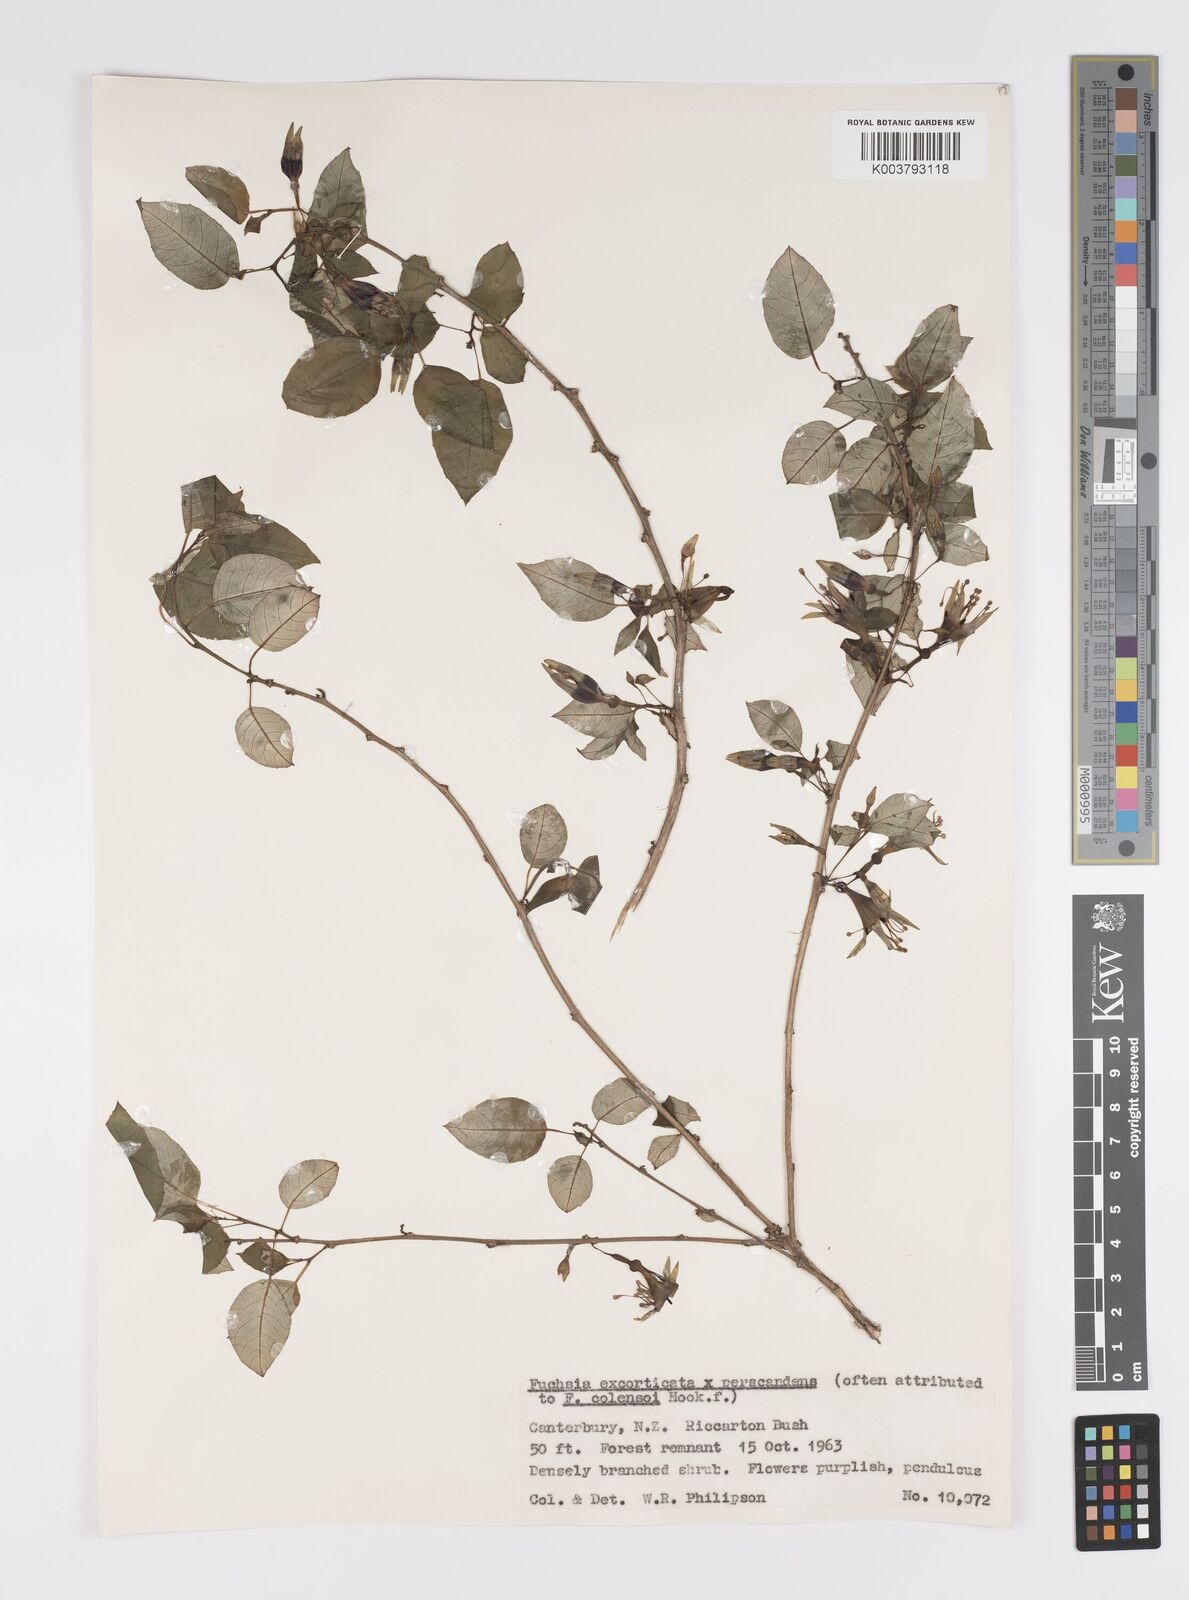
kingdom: Plantae
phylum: Tracheophyta
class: Magnoliopsida
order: Myrtales
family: Onagraceae
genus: Fuchsia
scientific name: Fuchsia excorticata
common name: Tree fuchsia
